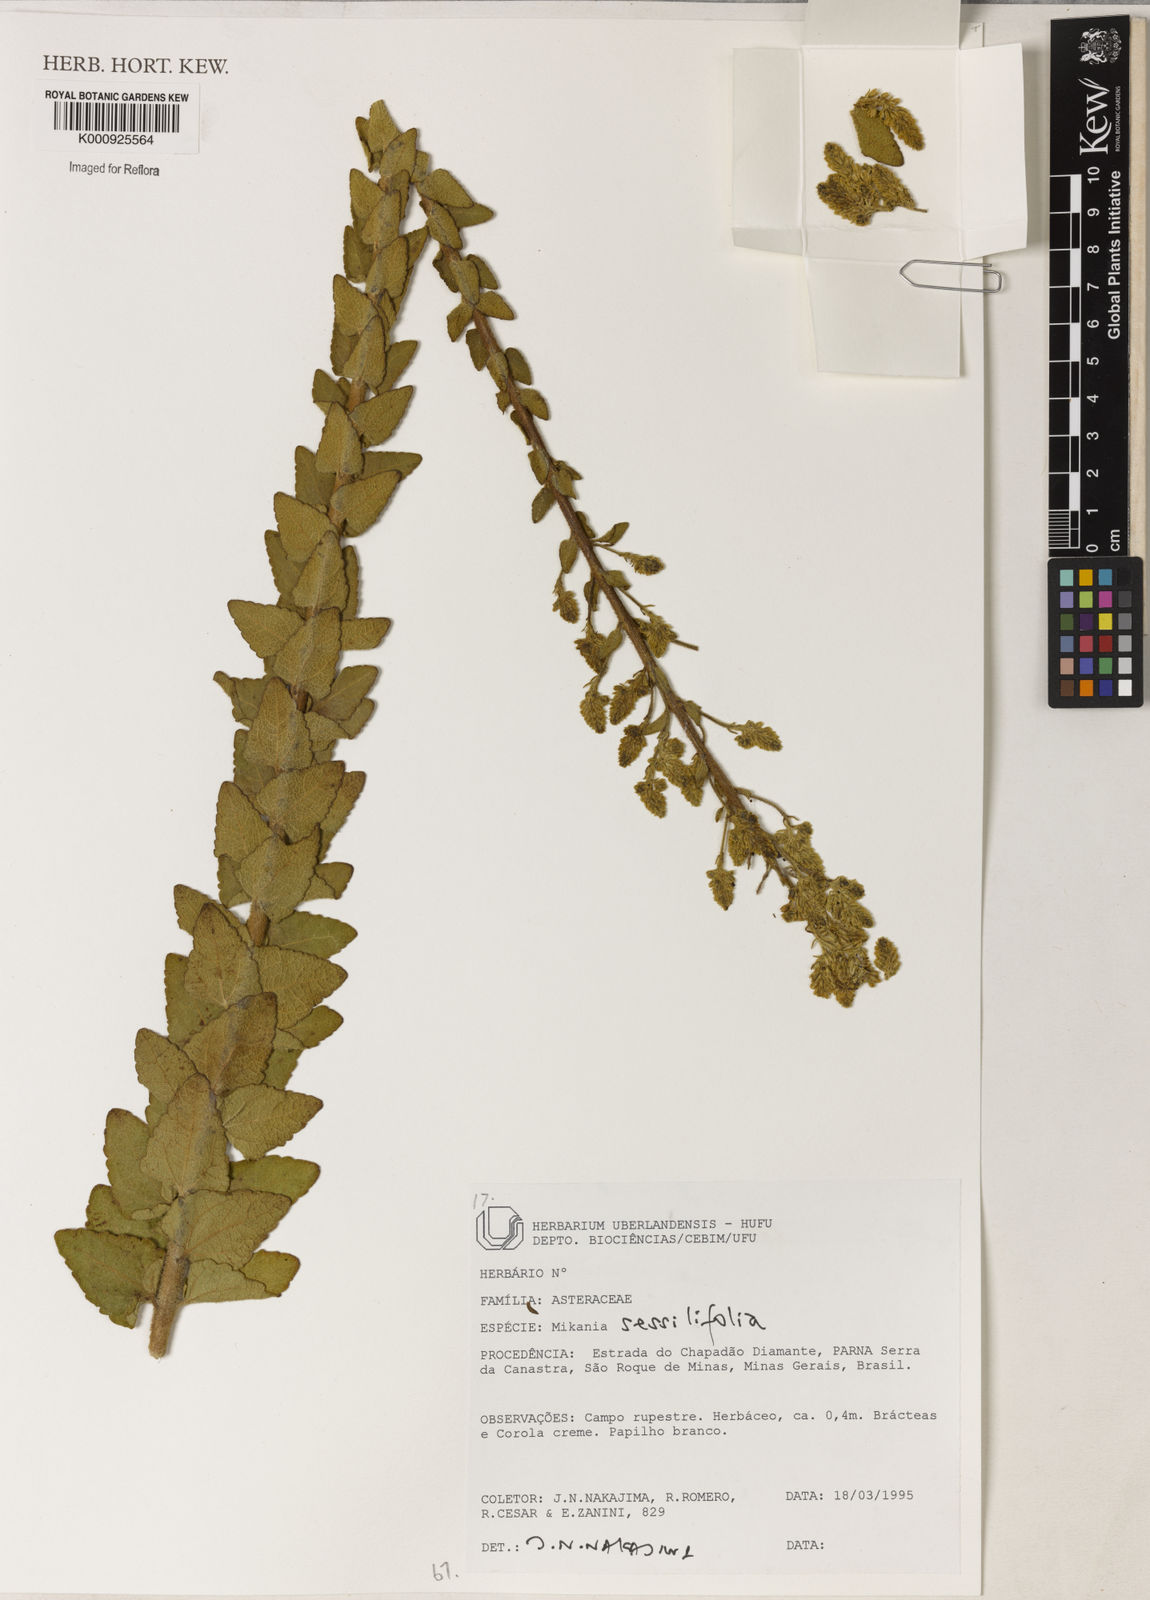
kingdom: Plantae
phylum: Tracheophyta
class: Magnoliopsida
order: Asterales
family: Asteraceae
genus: Mikania
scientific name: Mikania sessilifolia
